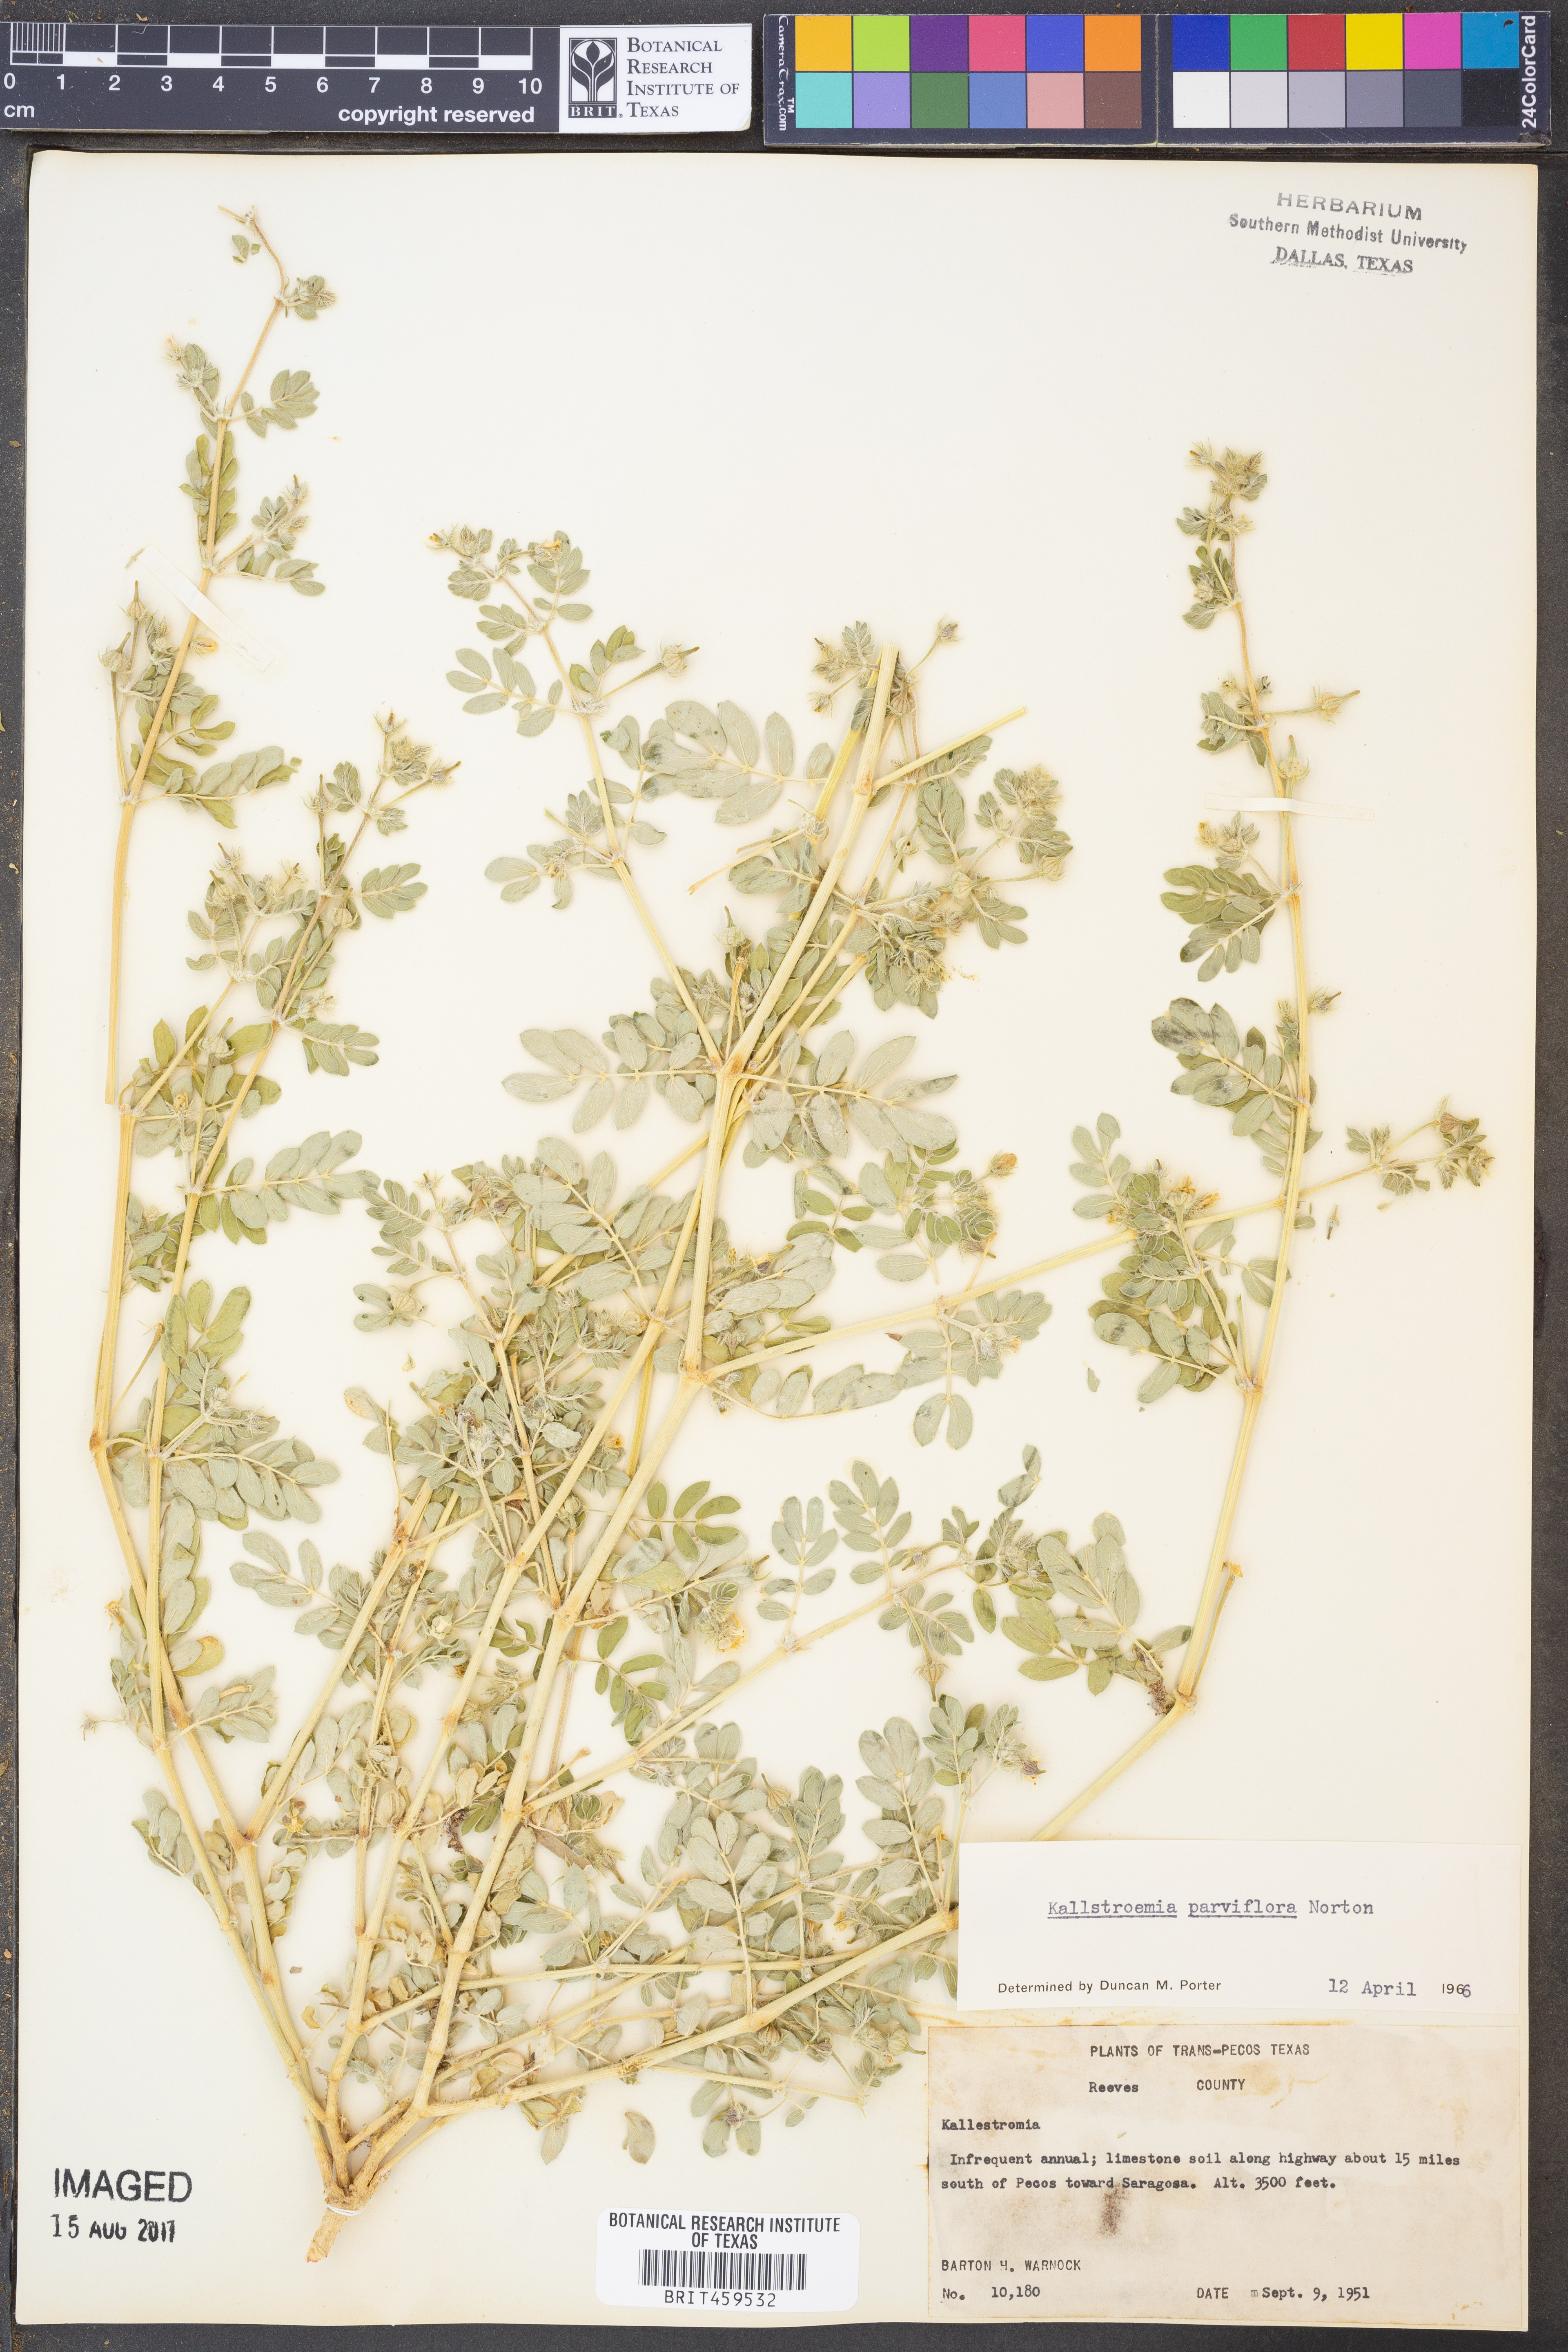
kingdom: Plantae
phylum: Tracheophyta
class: Magnoliopsida
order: Zygophyllales
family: Zygophyllaceae
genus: Kallstroemia
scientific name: Kallstroemia parviflora
